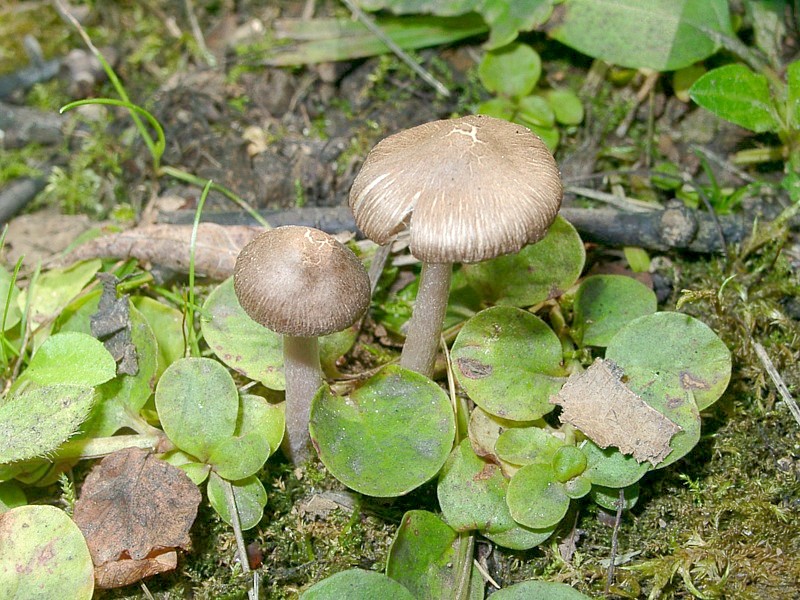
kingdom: Fungi
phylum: Basidiomycota
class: Agaricomycetes
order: Agaricales
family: Inocybaceae
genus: Inocybe
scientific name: Inocybe pusio
